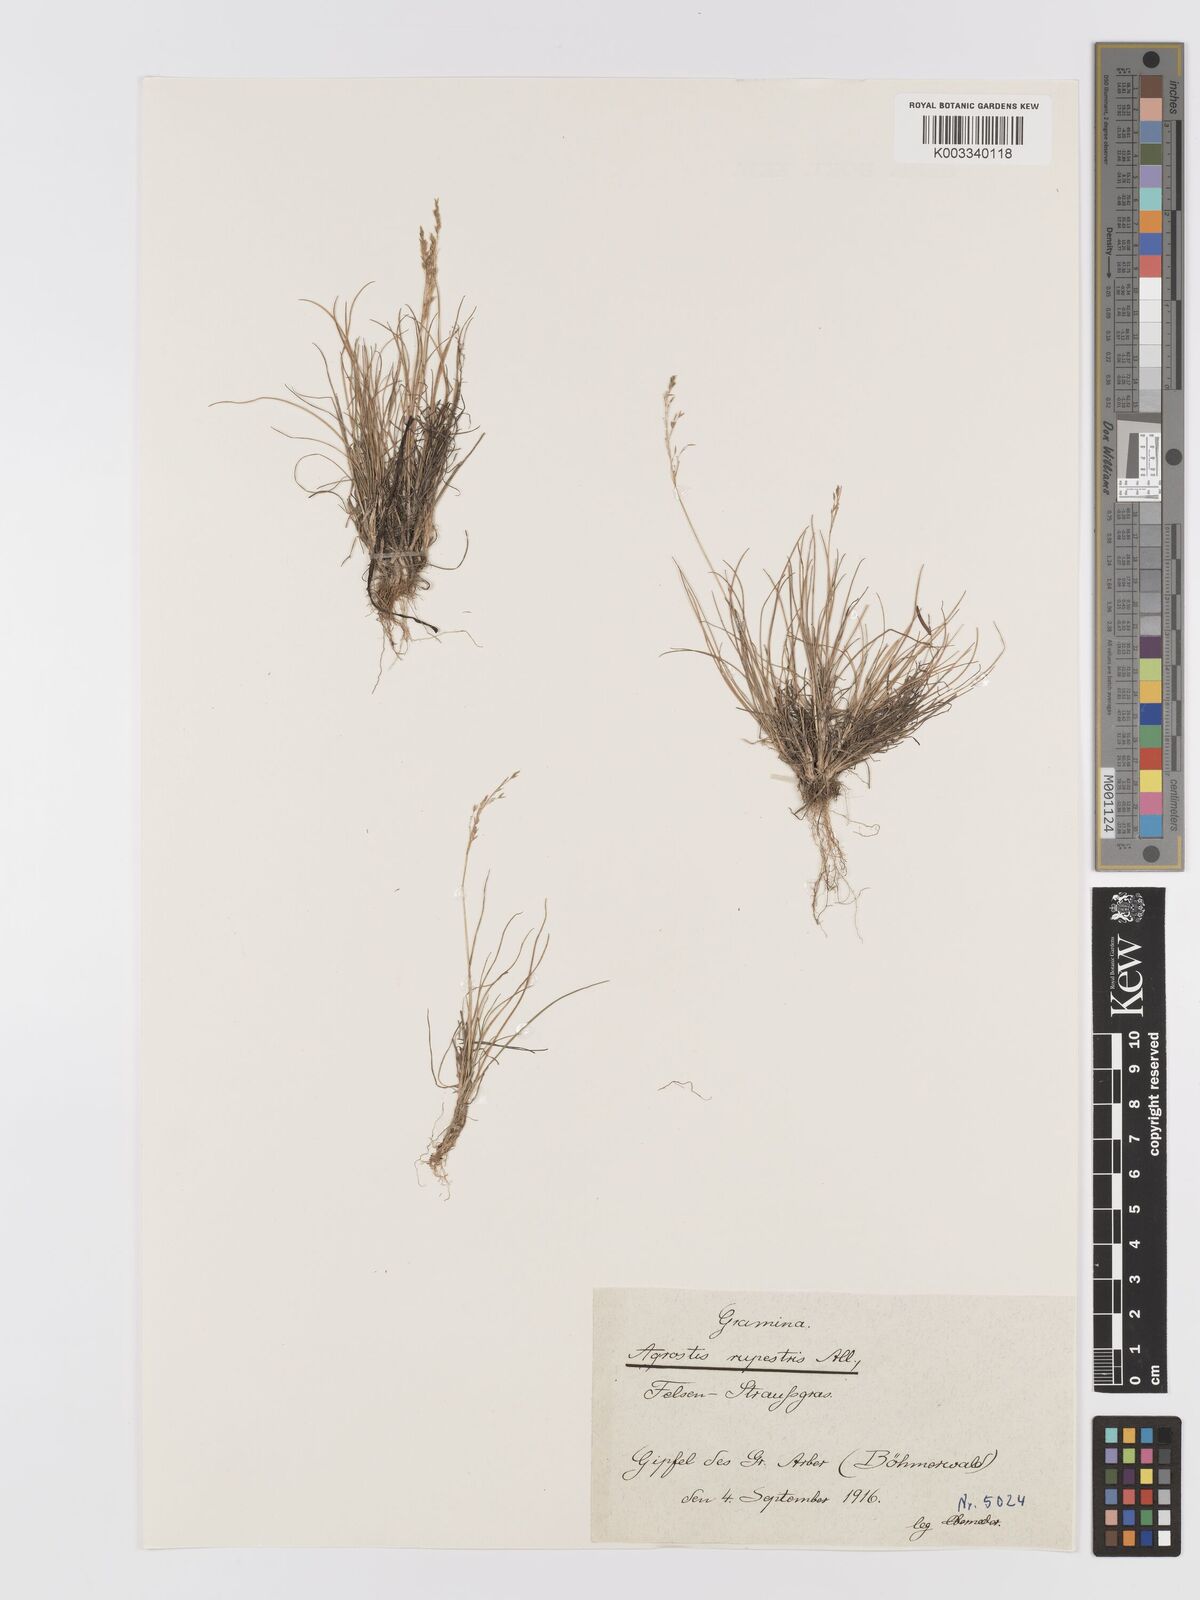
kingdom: Plantae
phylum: Tracheophyta
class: Liliopsida
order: Poales
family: Poaceae
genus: Agrostis
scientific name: Agrostis rupestris
